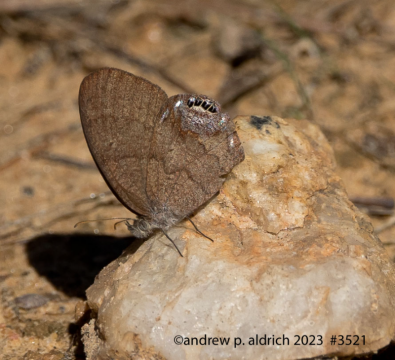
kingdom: Animalia
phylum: Arthropoda
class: Insecta
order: Lepidoptera
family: Nymphalidae
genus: Euptychia
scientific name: Euptychia cornelius
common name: Gemmed Satyr
